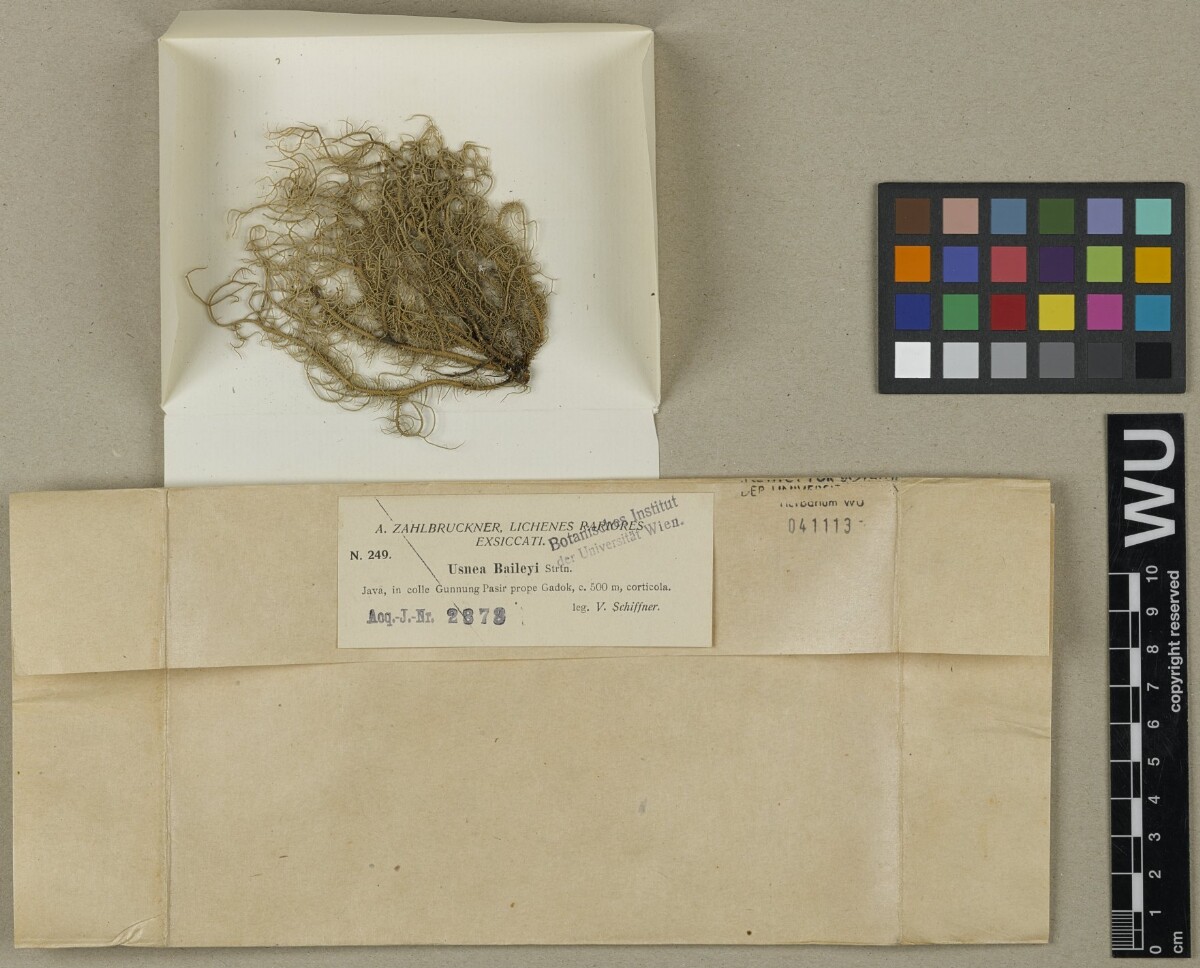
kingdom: Fungi
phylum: Ascomycota
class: Lecanoromycetes
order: Lecanorales
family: Parmeliaceae
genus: Eumitria
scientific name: Eumitria baileyi
